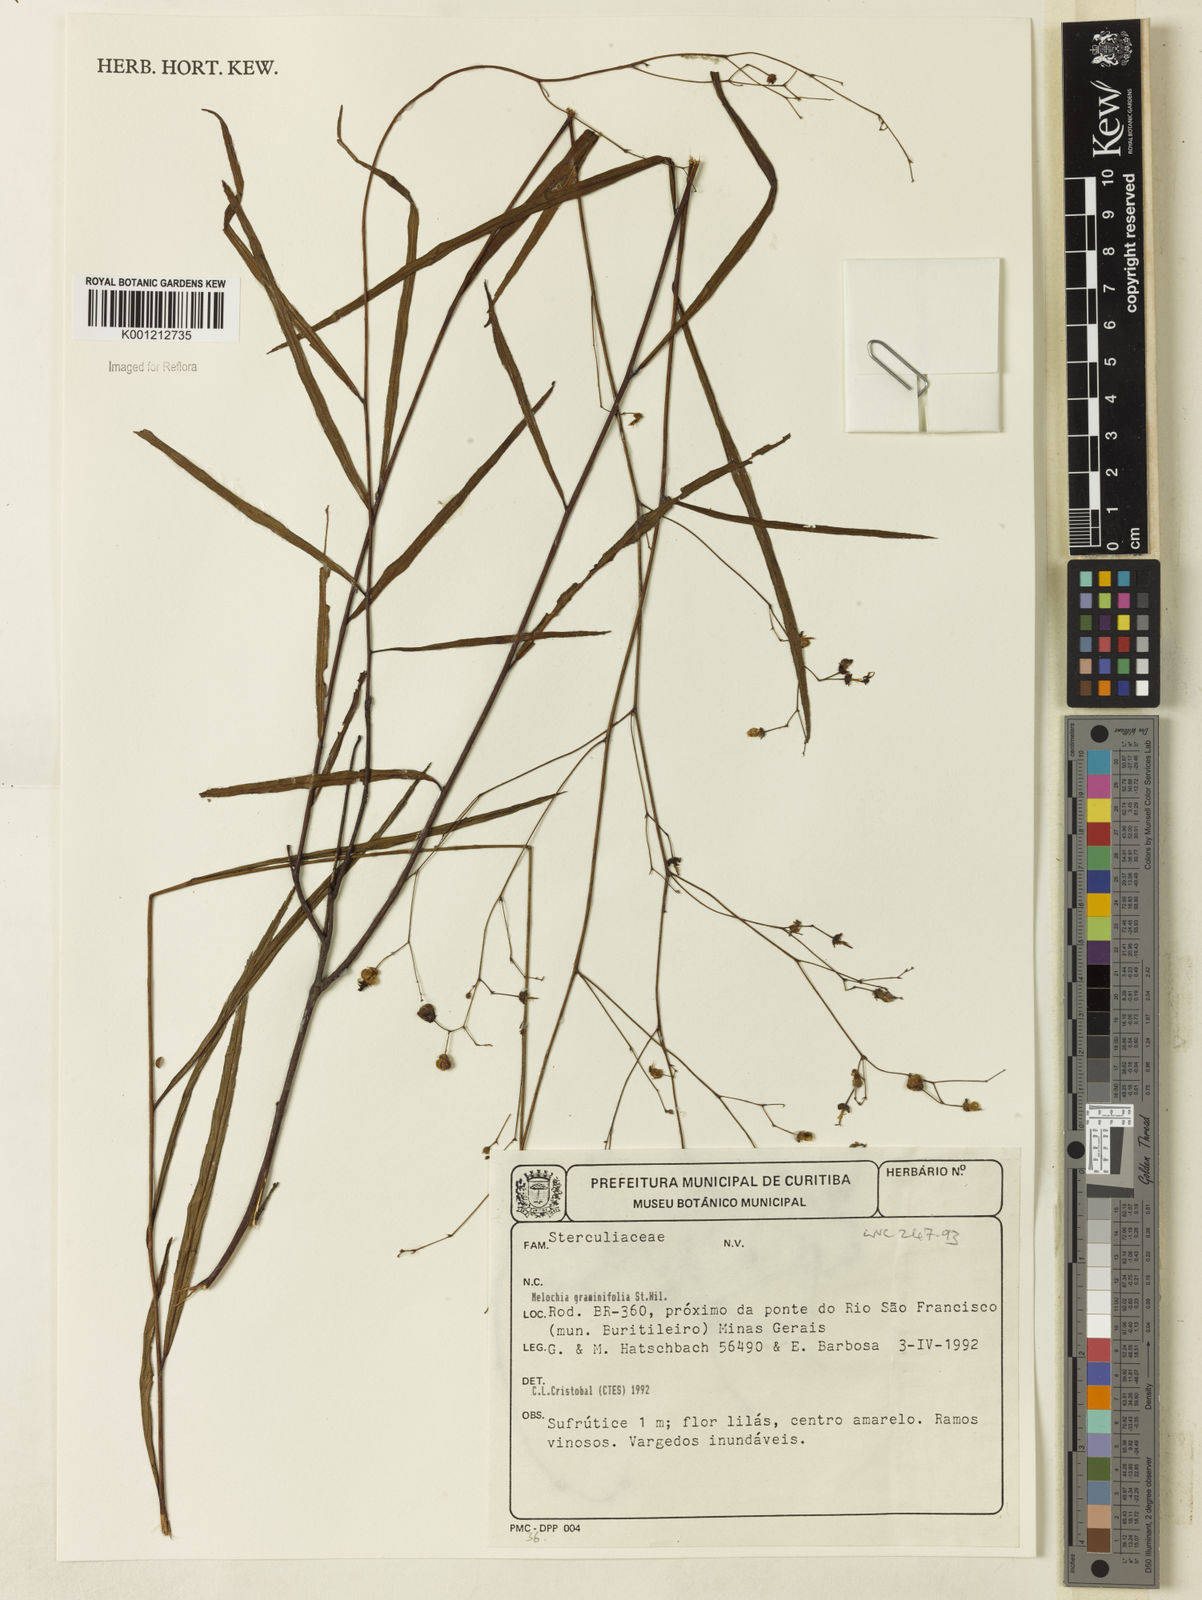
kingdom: Plantae
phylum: Tracheophyta
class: Magnoliopsida
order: Malvales
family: Malvaceae
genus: Melochia
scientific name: Melochia graminifolia
